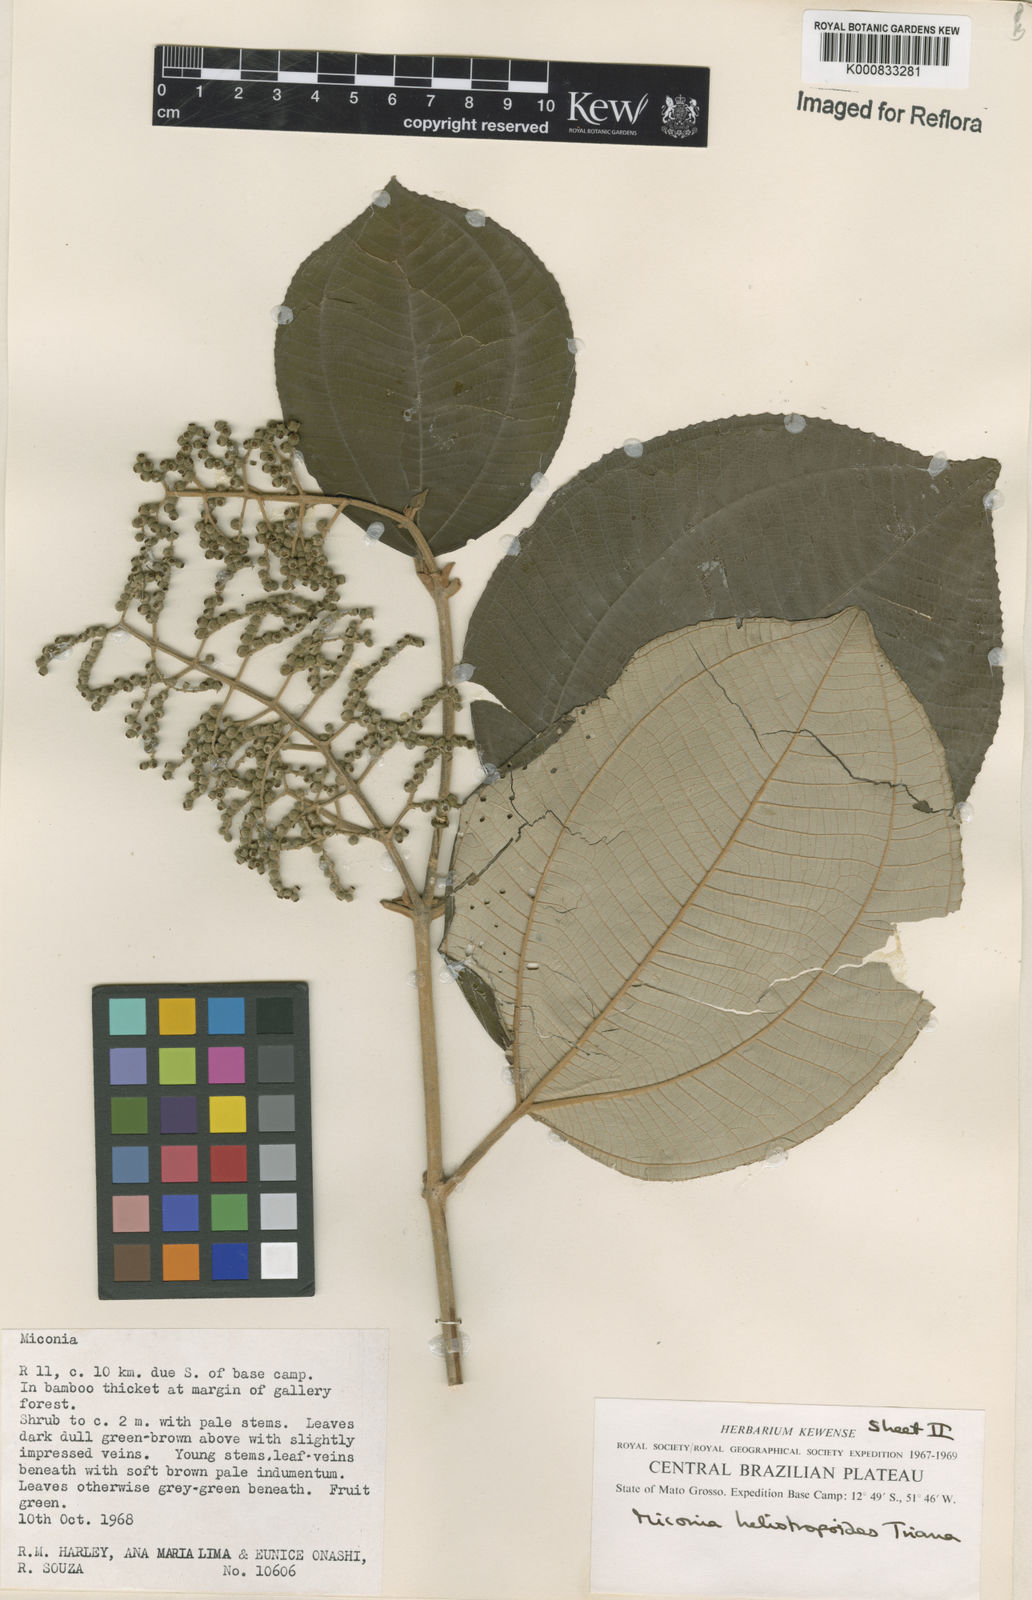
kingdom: Plantae
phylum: Tracheophyta
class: Magnoliopsida
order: Myrtales
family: Melastomataceae
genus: Miconia
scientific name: Miconia heliotropoides
